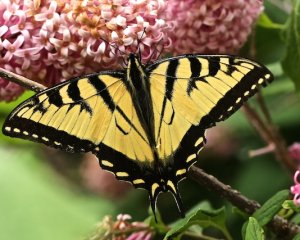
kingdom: Animalia
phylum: Arthropoda
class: Insecta
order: Lepidoptera
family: Papilionidae
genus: Pterourus
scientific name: Pterourus canadensis
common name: Canadian Tiger Swallowtail
